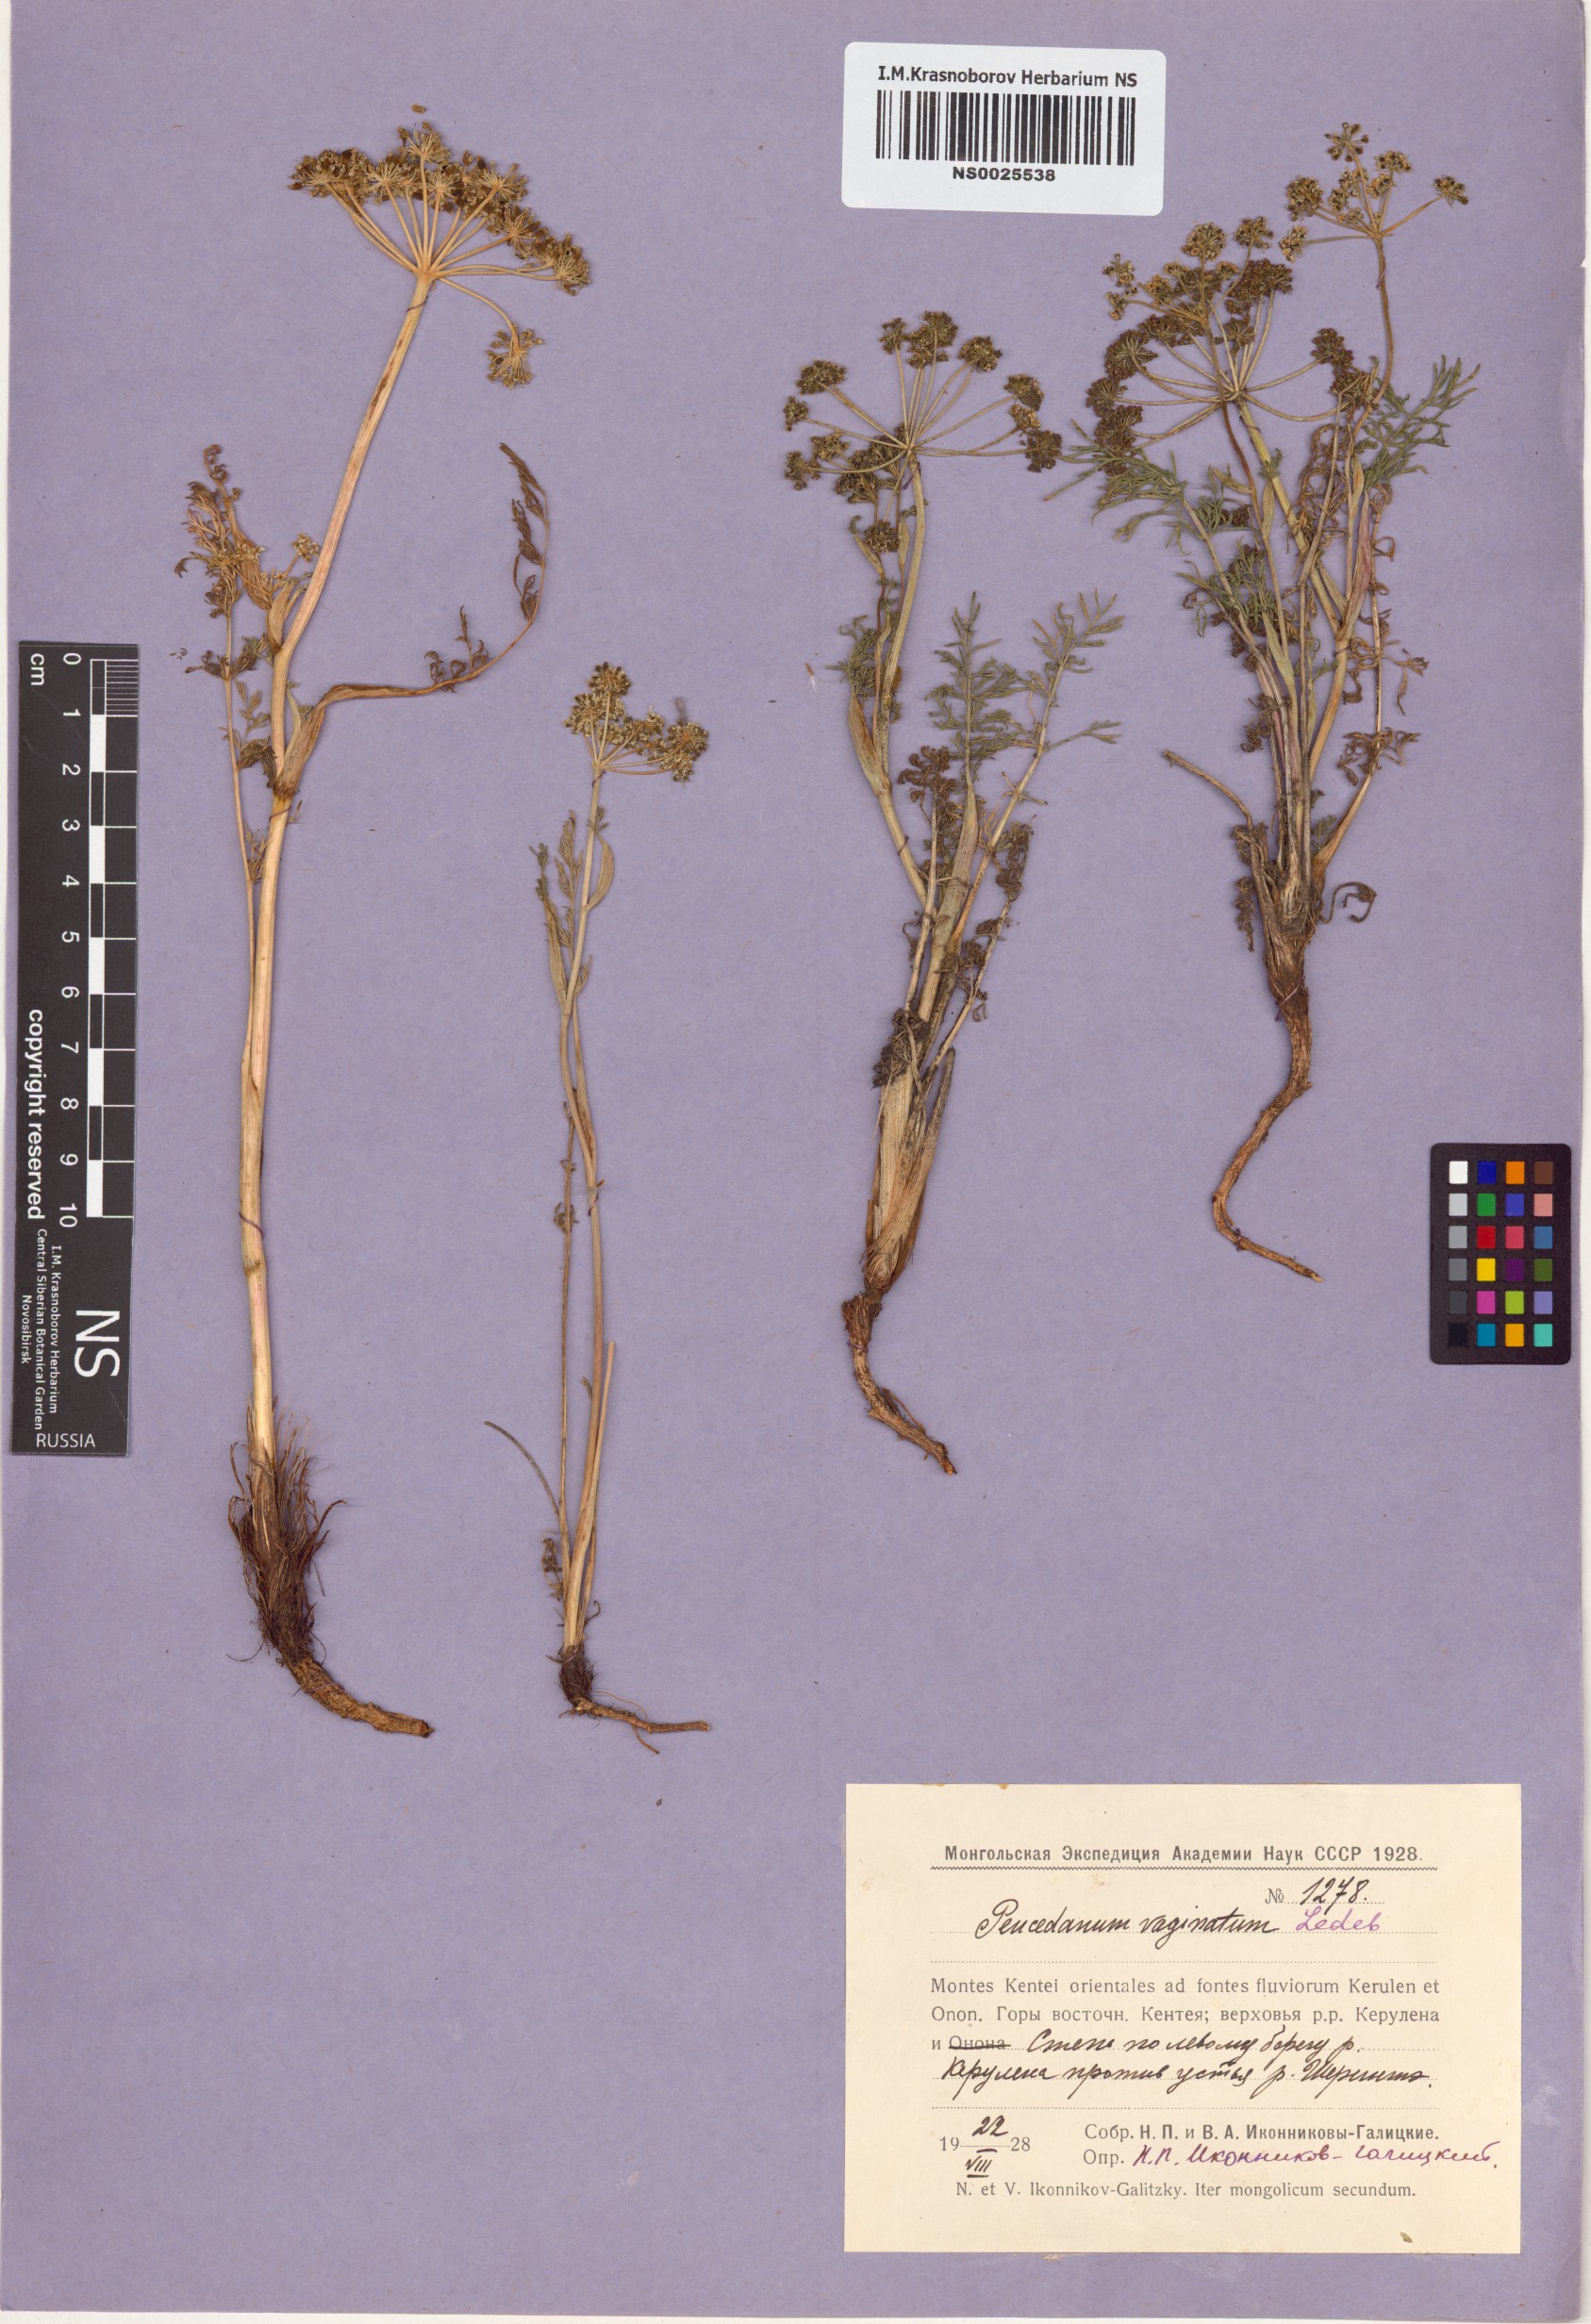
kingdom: Plantae
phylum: Tracheophyta
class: Magnoliopsida
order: Apiales
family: Apiaceae
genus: Peucedanum
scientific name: Peucedanum vaginatum
